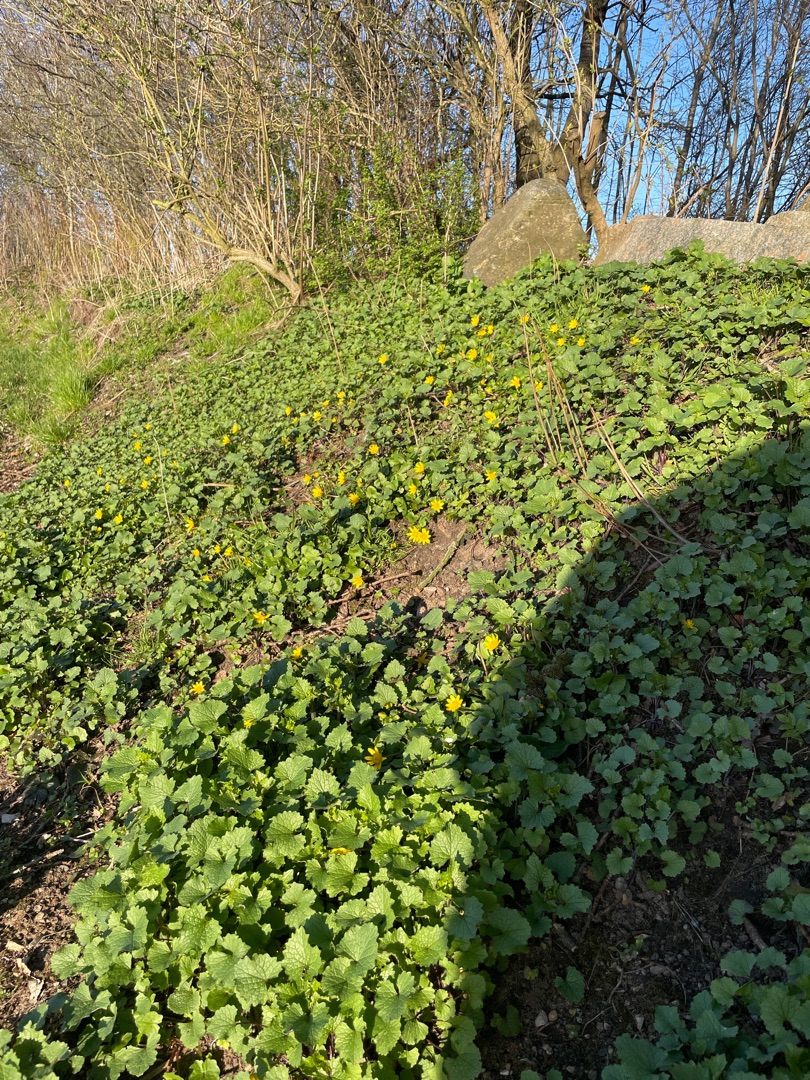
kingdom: Plantae
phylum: Tracheophyta
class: Magnoliopsida
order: Ranunculales
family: Ranunculaceae
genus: Ficaria
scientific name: Ficaria verna
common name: Vorterod
